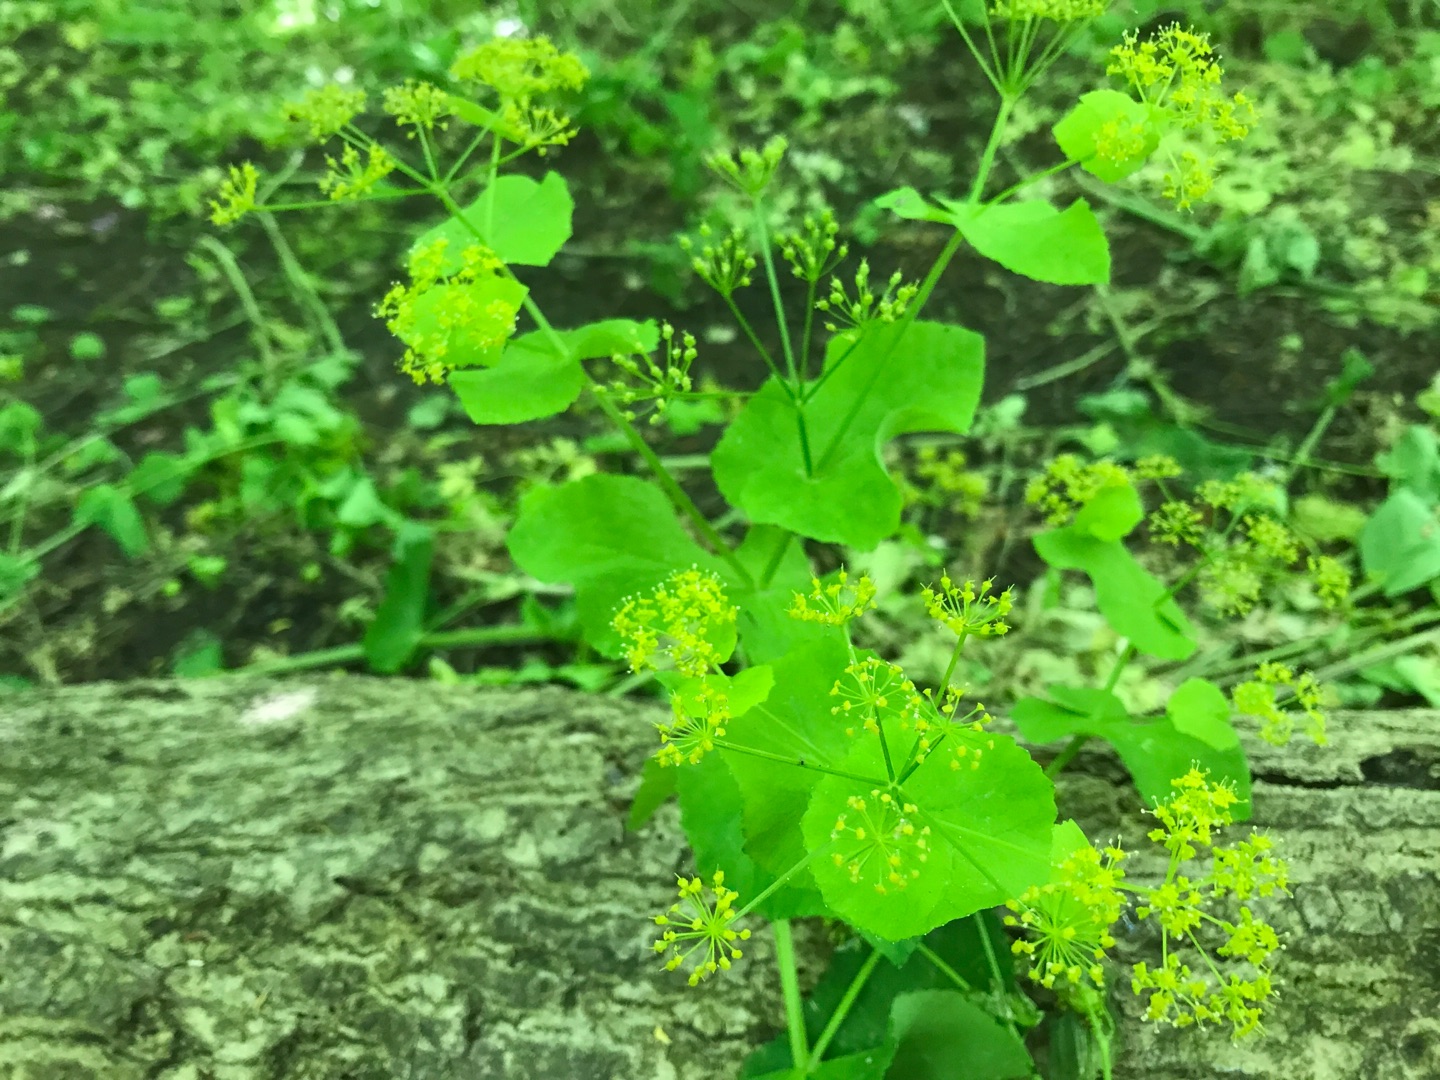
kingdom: Plantae
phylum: Tracheophyta
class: Magnoliopsida
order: Apiales
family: Apiaceae
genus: Smyrnium
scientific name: Smyrnium perfoliatum
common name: Lundgylden
